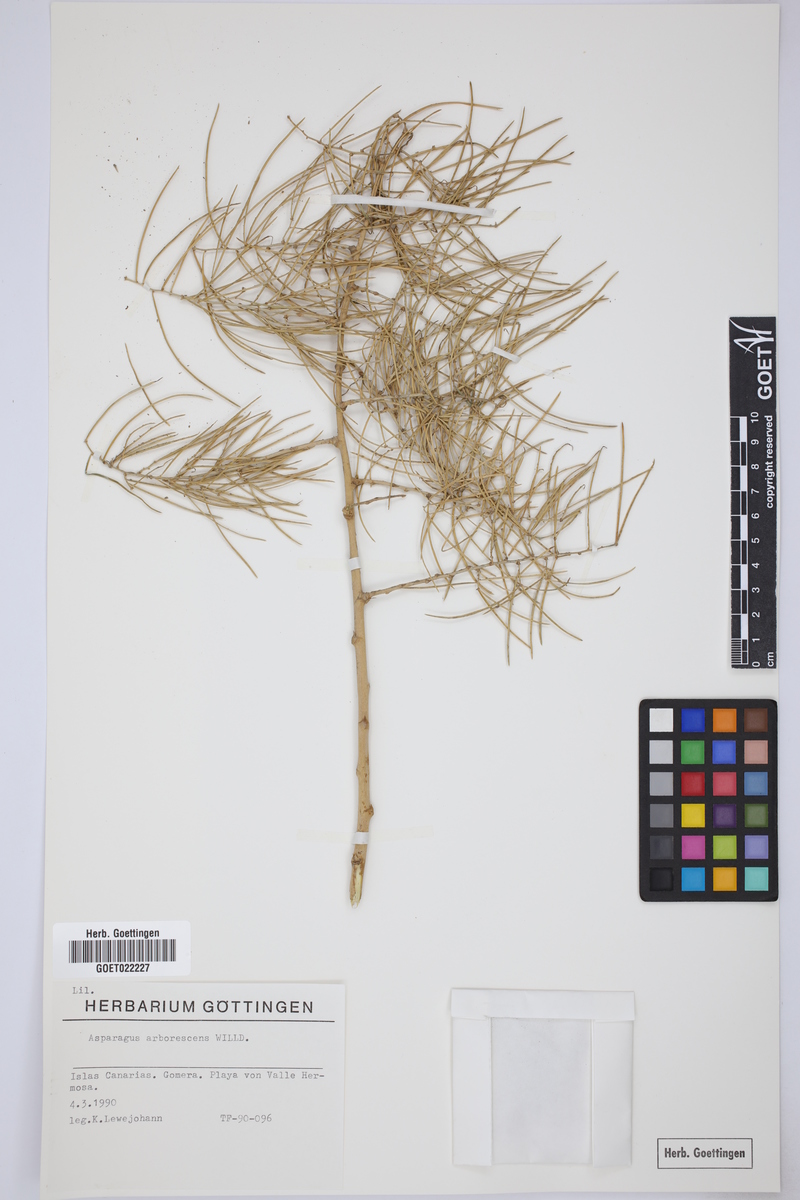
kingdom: Plantae
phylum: Tracheophyta
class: Liliopsida
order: Asparagales
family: Asparagaceae
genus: Asparagus
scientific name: Asparagus arborescens
